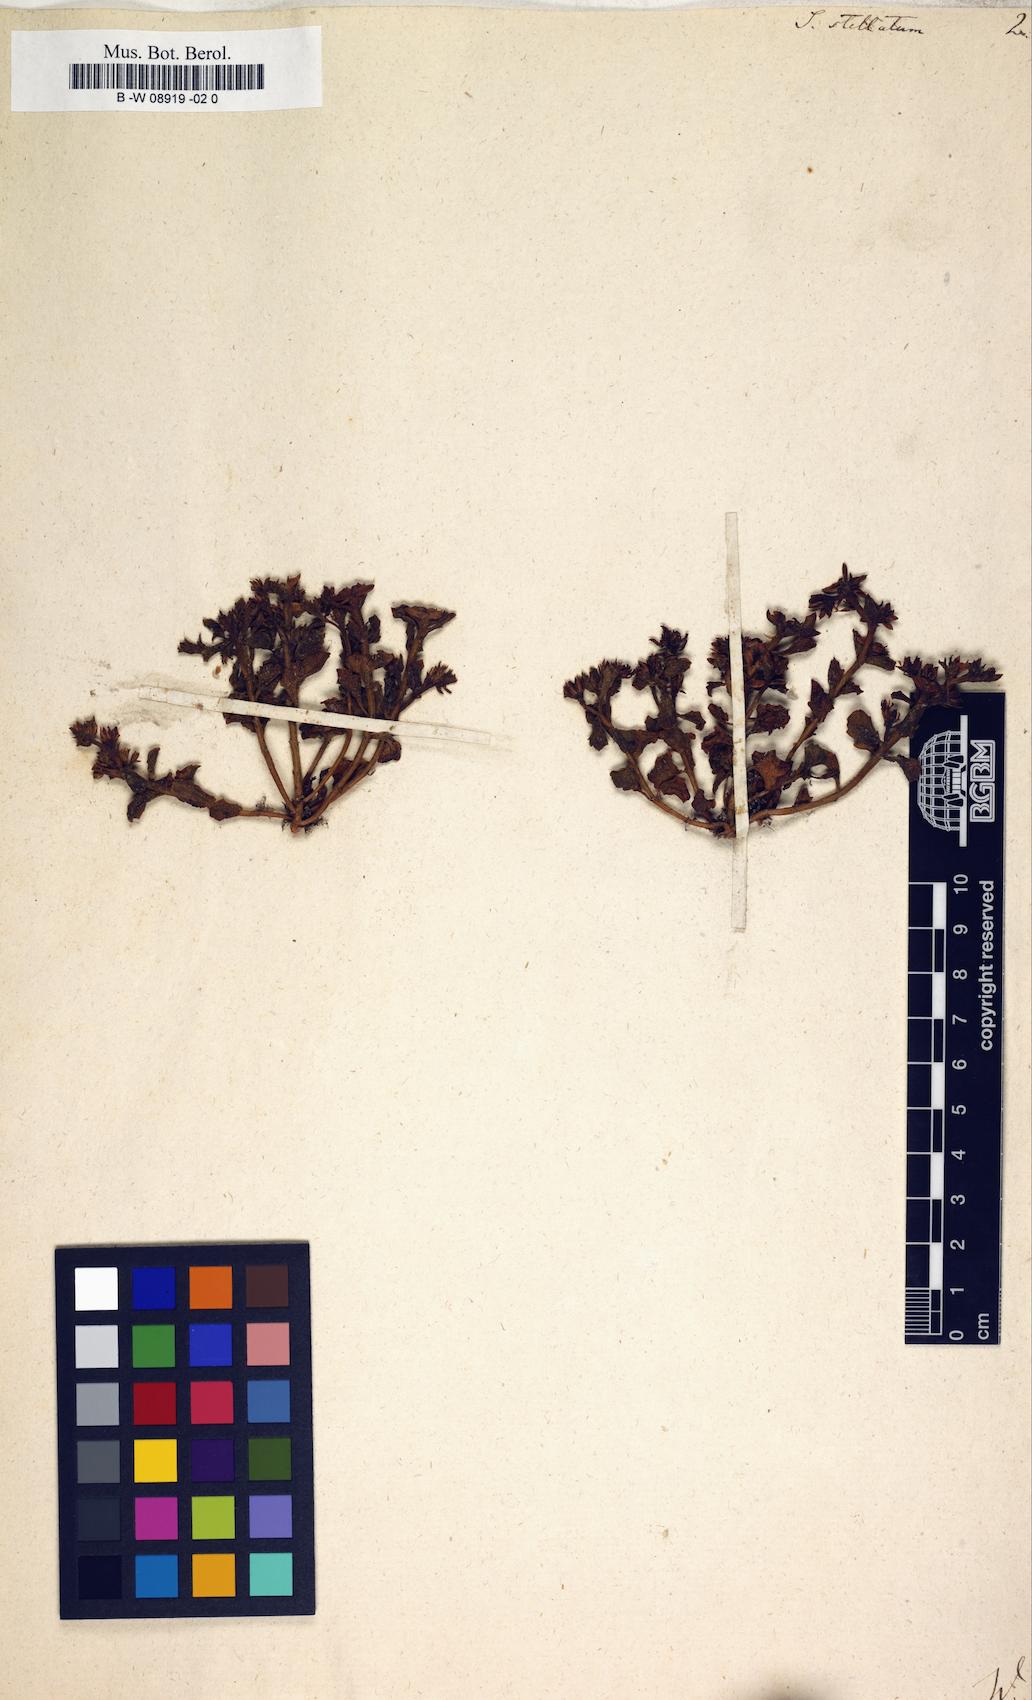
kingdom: Plantae
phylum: Tracheophyta
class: Magnoliopsida
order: Saxifragales
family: Crassulaceae
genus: Sedum
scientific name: Sedum stellatum
